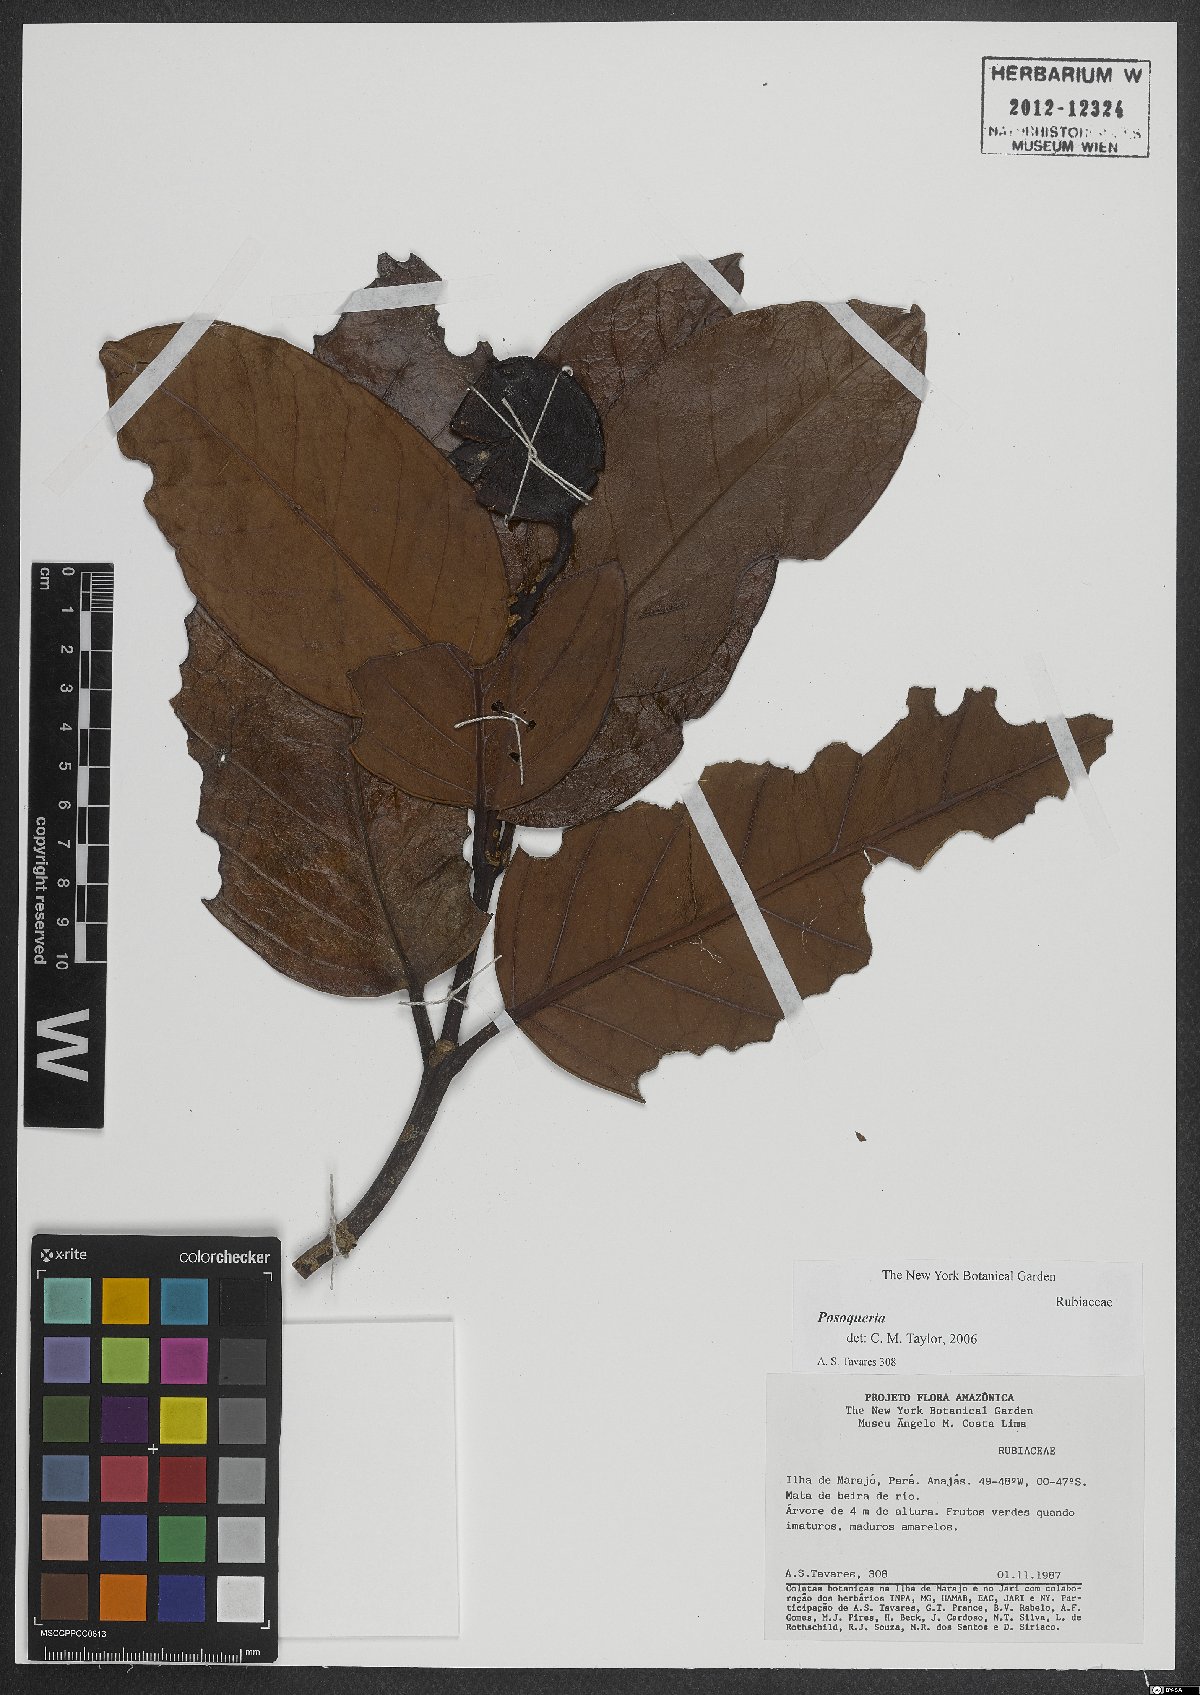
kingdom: Plantae
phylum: Tracheophyta
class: Magnoliopsida
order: Gentianales
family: Rubiaceae
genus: Posoqueria
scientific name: Posoqueria
